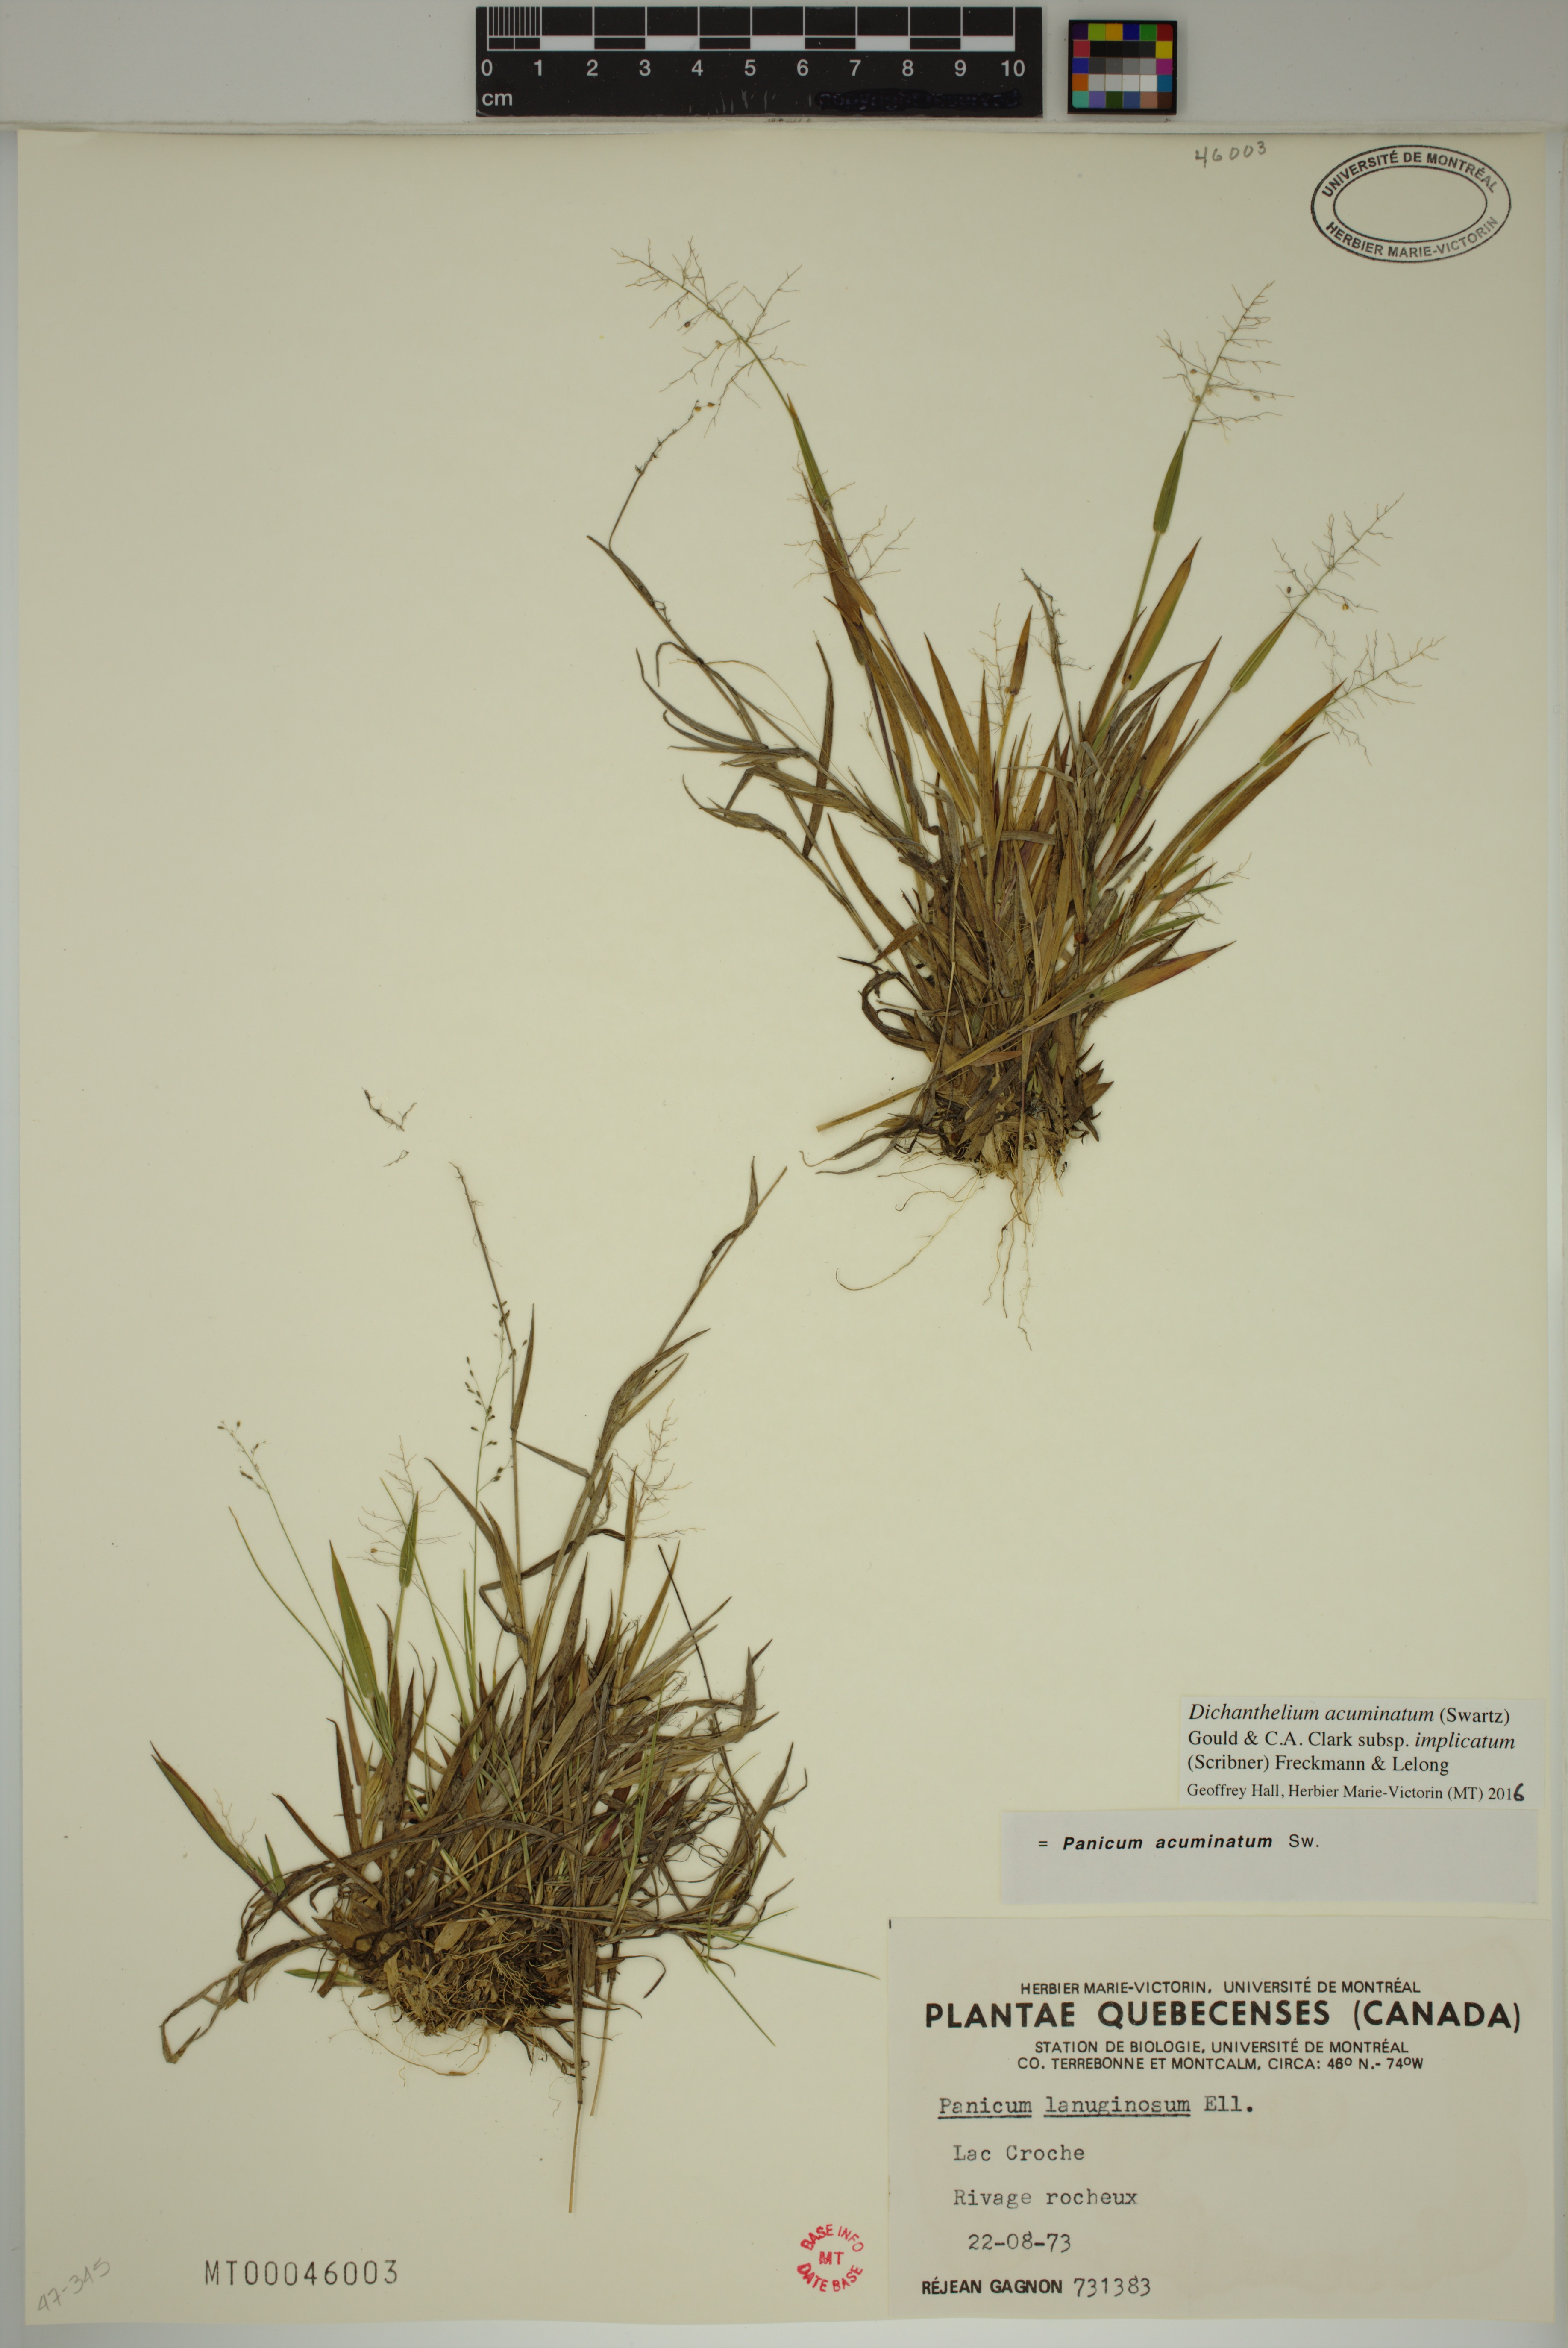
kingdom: Plantae
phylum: Tracheophyta
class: Liliopsida
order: Poales
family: Poaceae
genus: Dichanthelium
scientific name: Dichanthelium implicatum
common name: Slender-stemmed panicgrass
